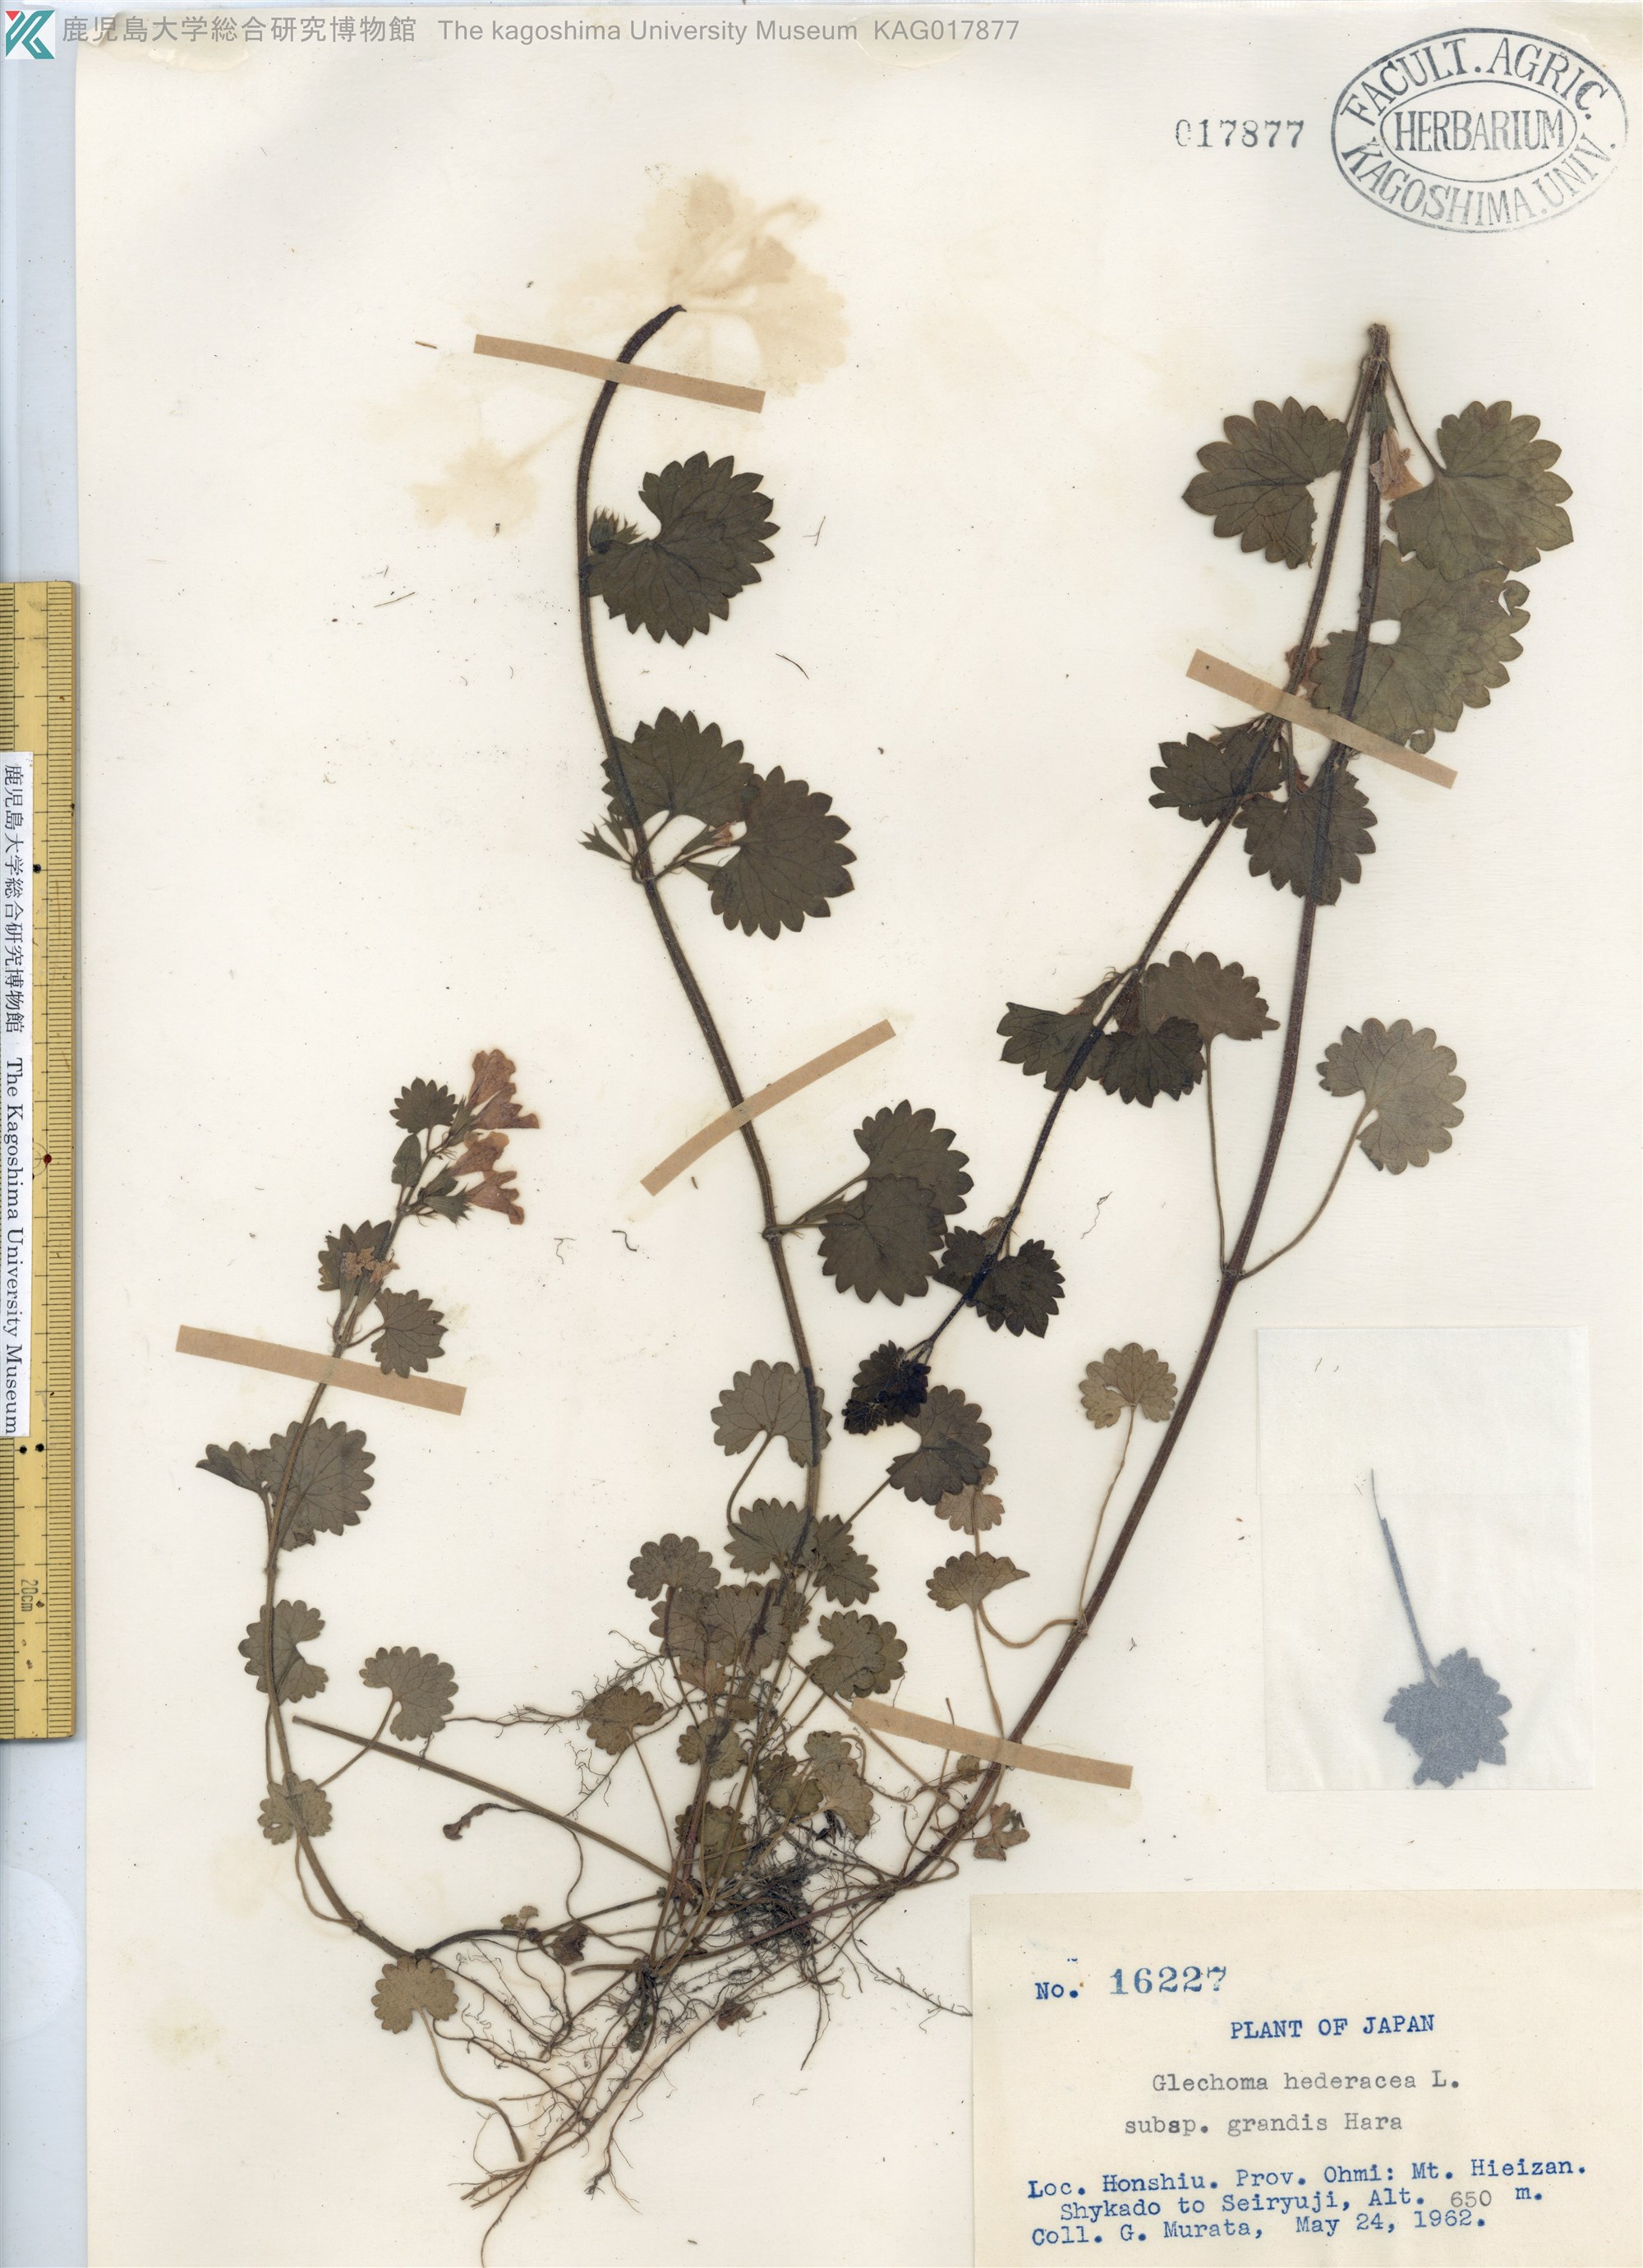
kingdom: Plantae
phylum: Tracheophyta
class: Magnoliopsida
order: Lamiales
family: Lamiaceae
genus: Glechoma
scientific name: Glechoma grandis
